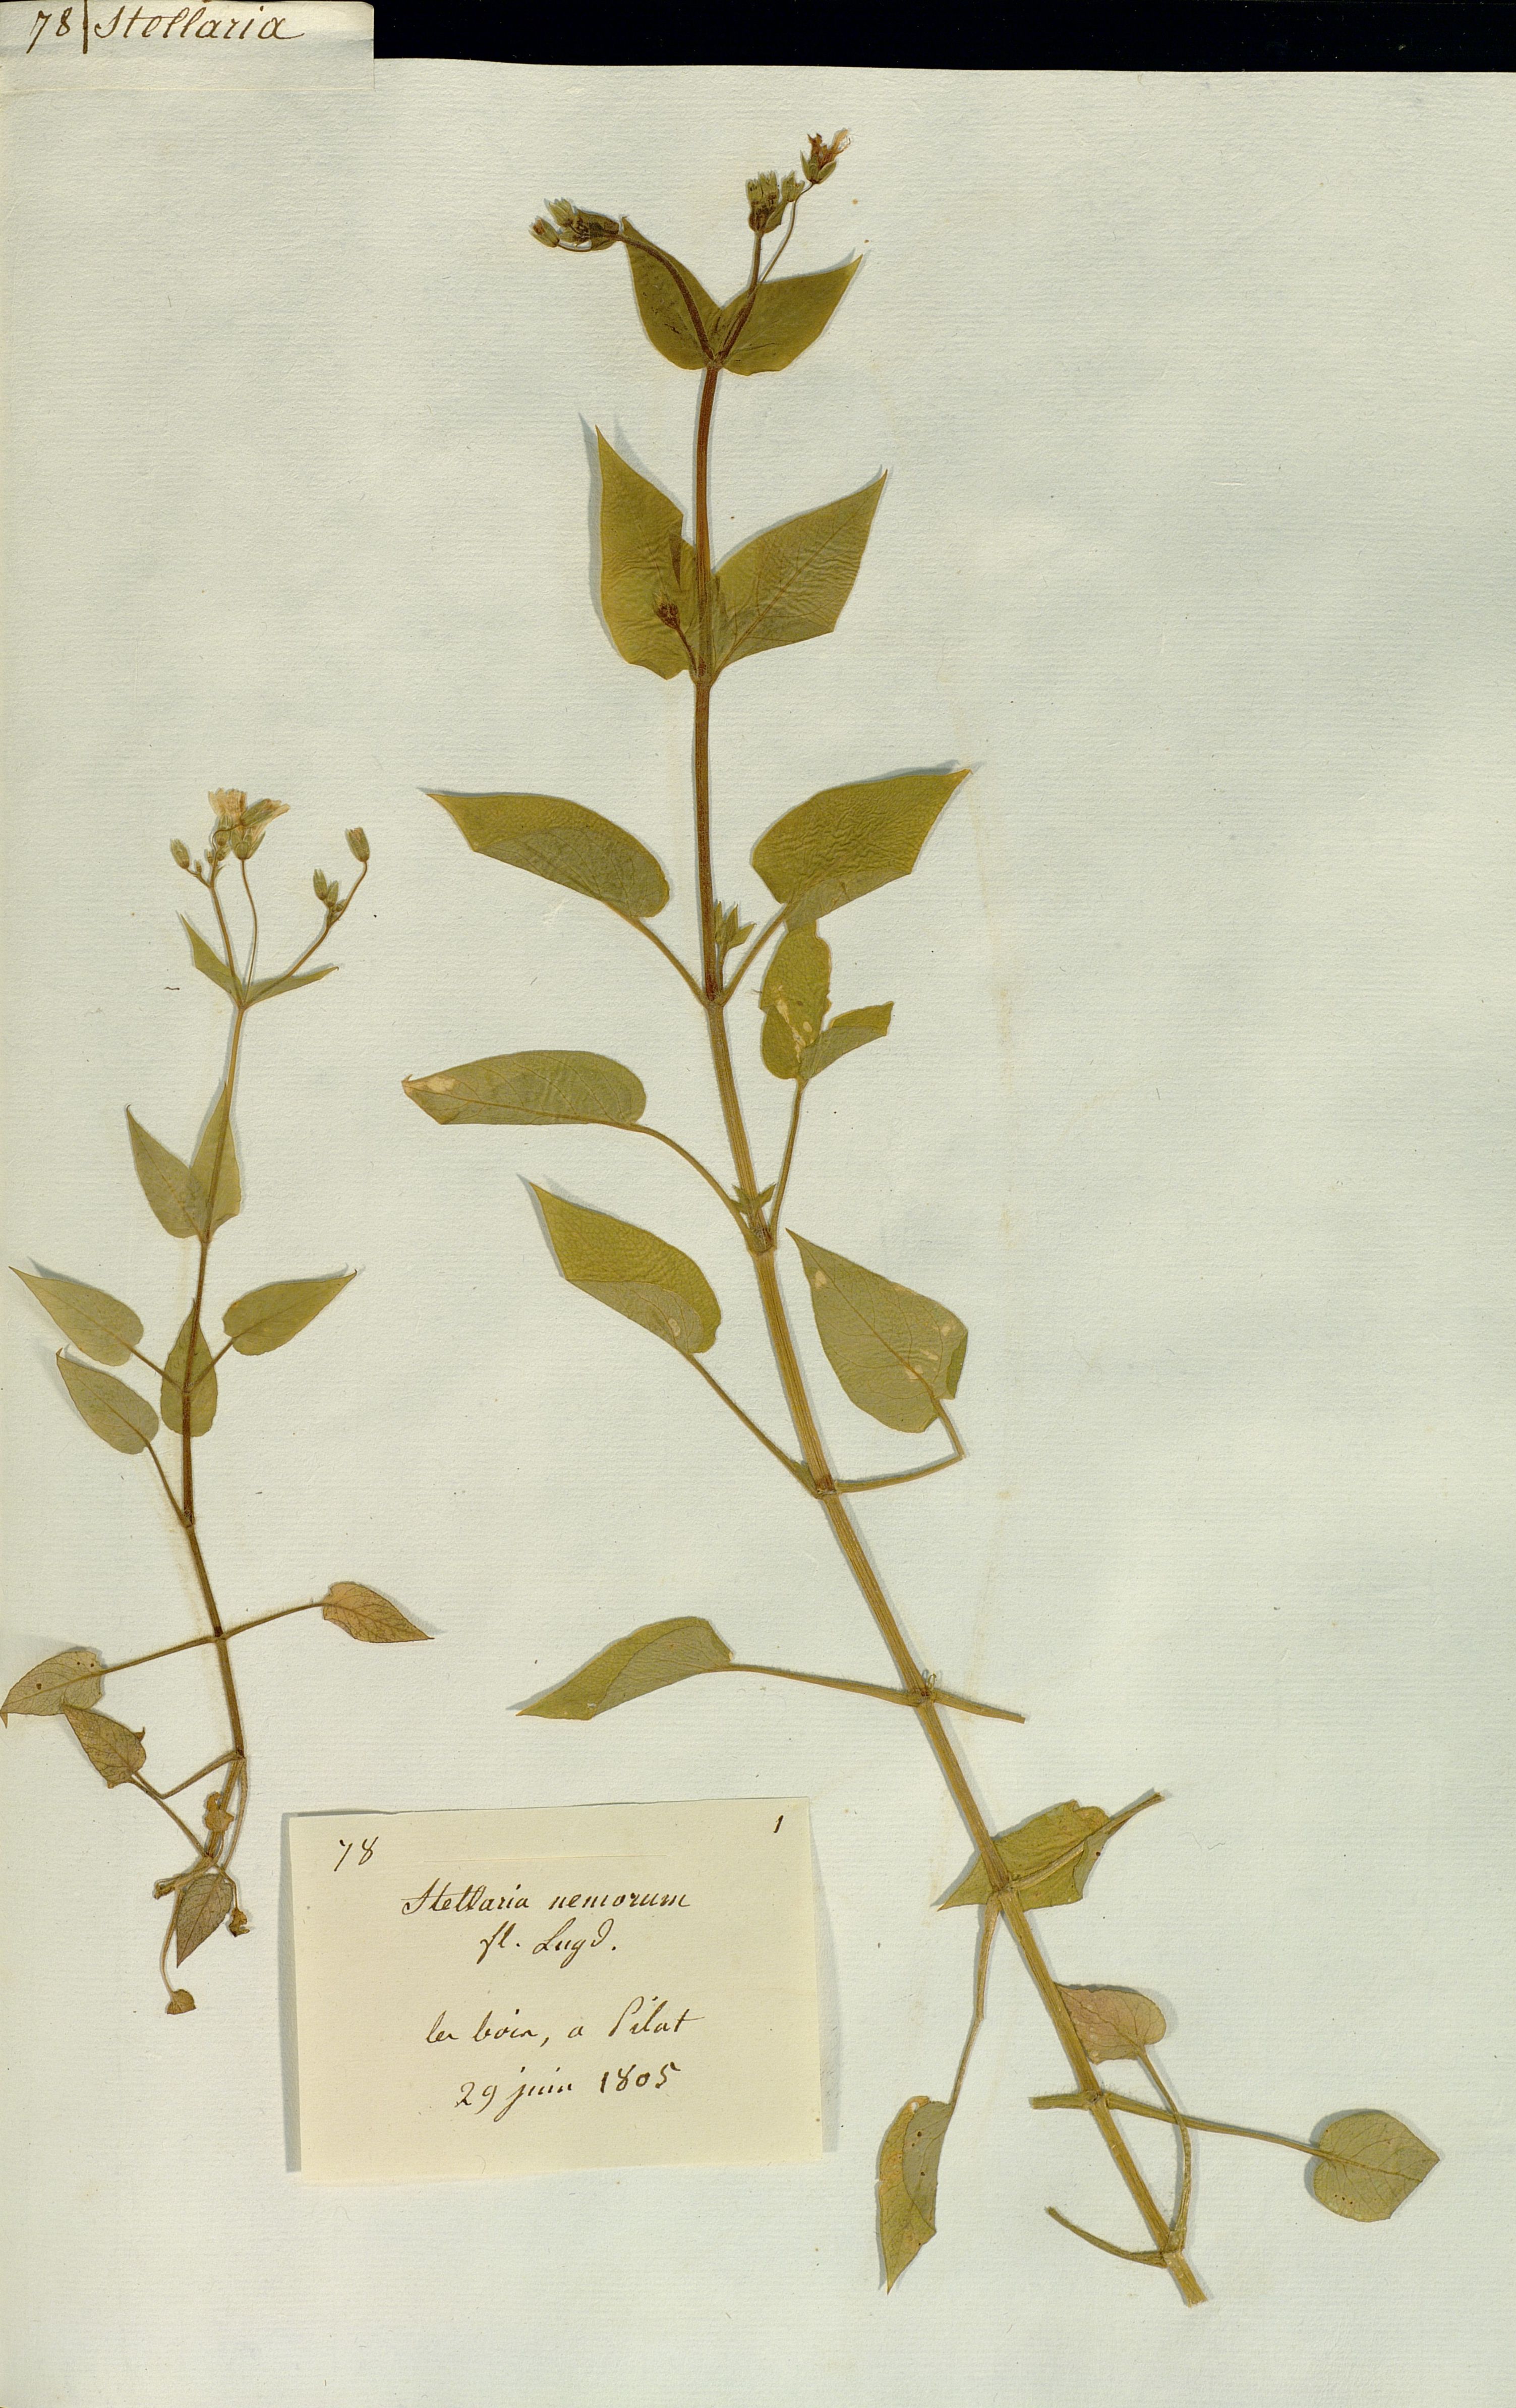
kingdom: Plantae
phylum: Tracheophyta
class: Magnoliopsida
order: Caryophyllales
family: Caryophyllaceae
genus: Stellaria
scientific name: Stellaria nemorum
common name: Wood stitchwort
